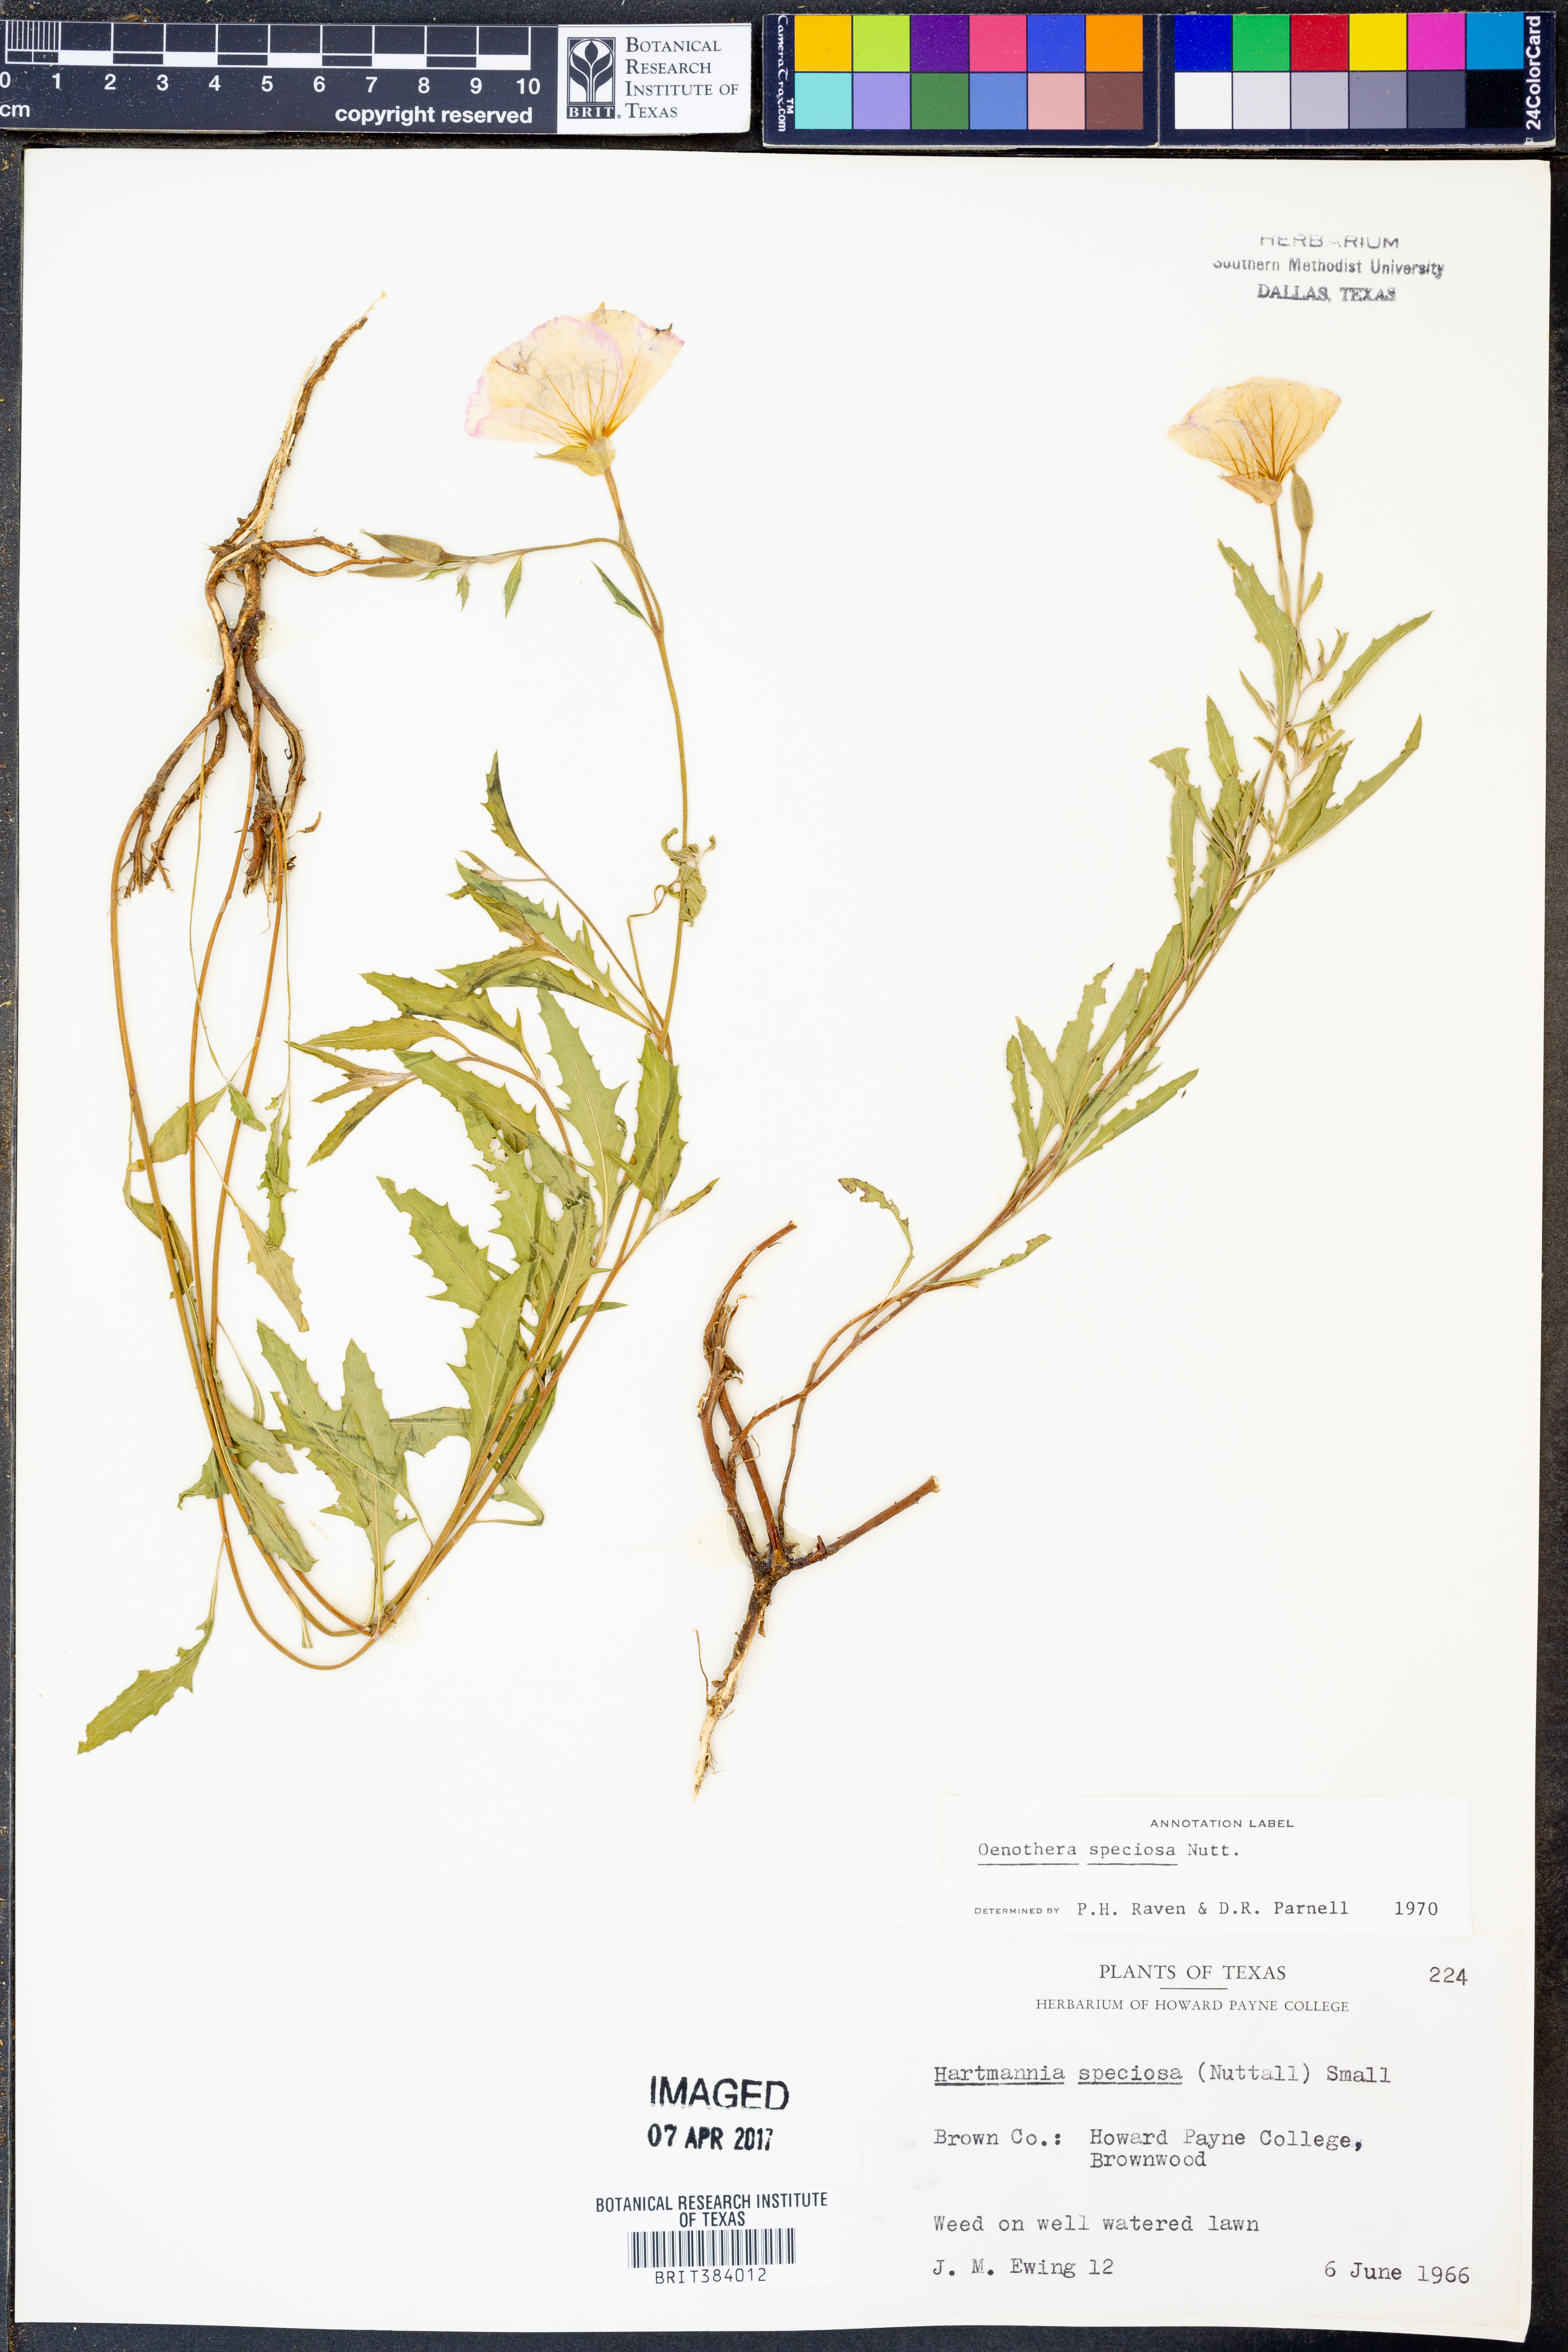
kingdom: Plantae
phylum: Tracheophyta
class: Magnoliopsida
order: Myrtales
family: Onagraceae
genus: Oenothera
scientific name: Oenothera speciosa
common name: White evening-primrose
